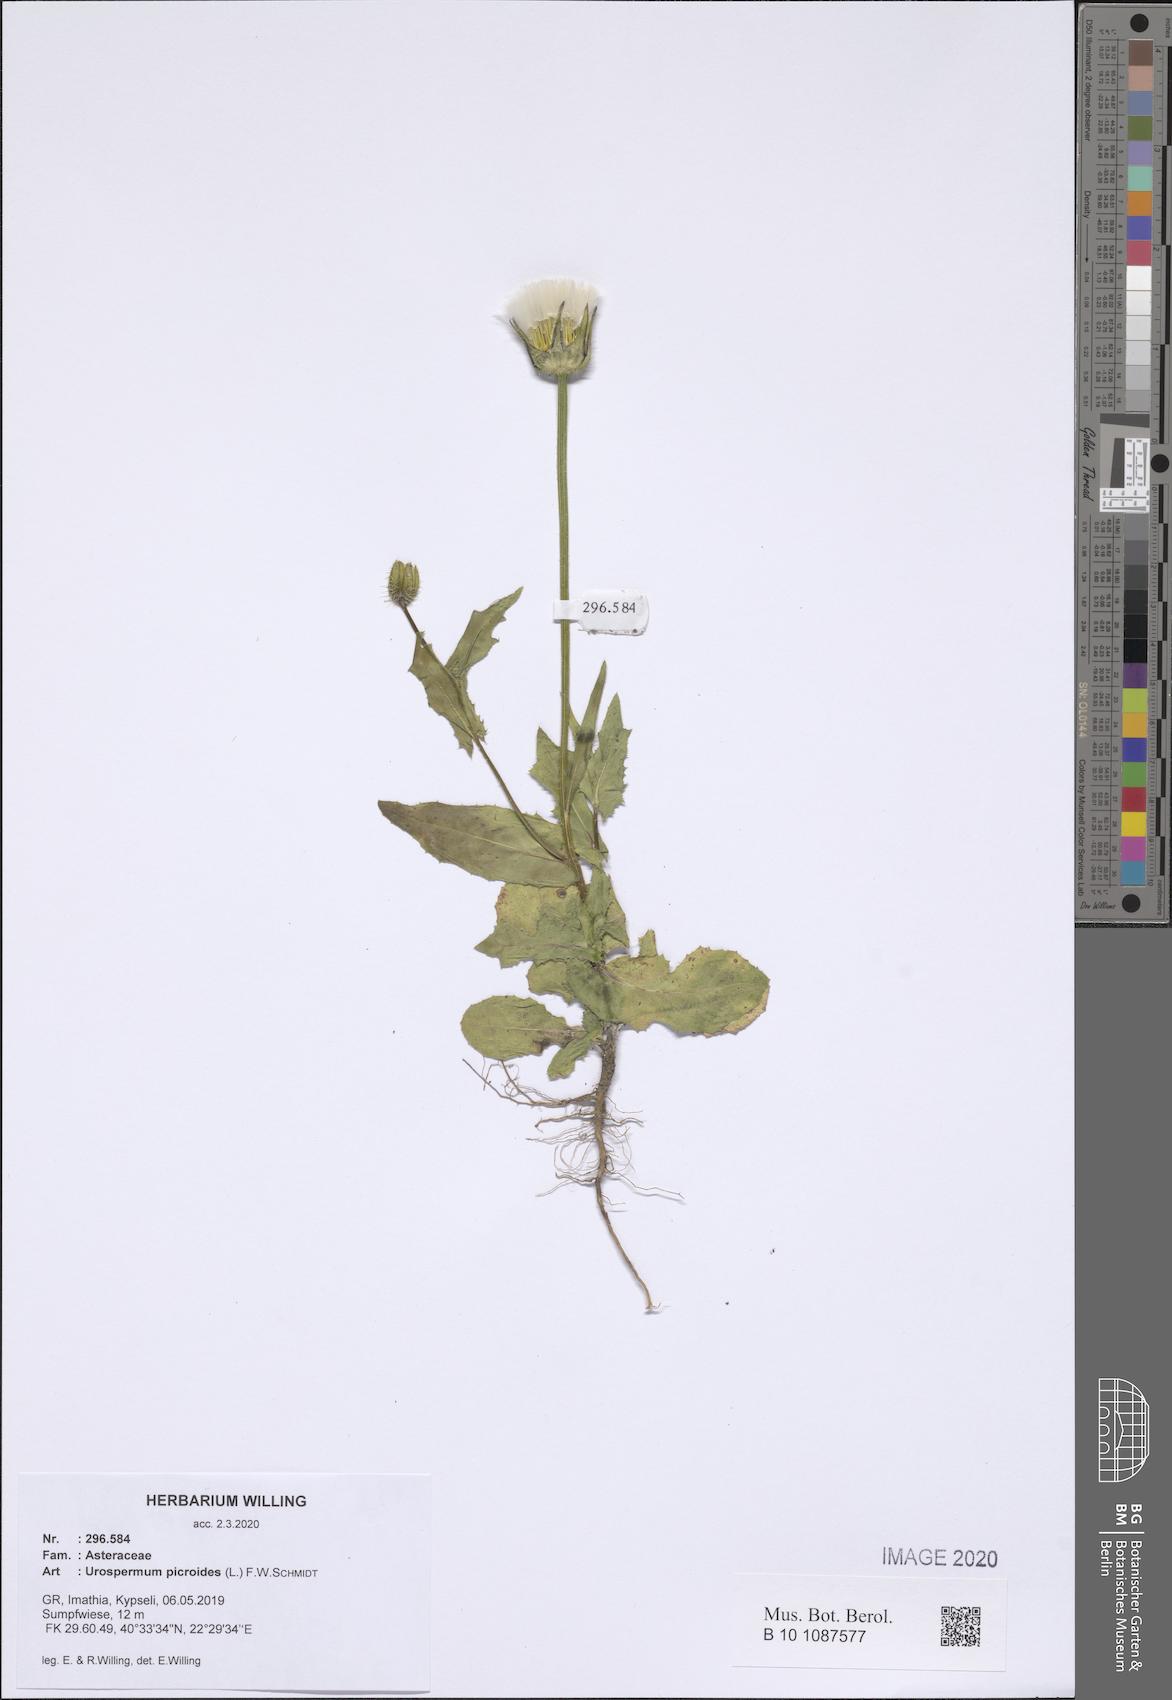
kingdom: Plantae
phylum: Tracheophyta
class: Magnoliopsida
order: Asterales
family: Asteraceae
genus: Urospermum
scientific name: Urospermum picroides
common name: False hawkbit
